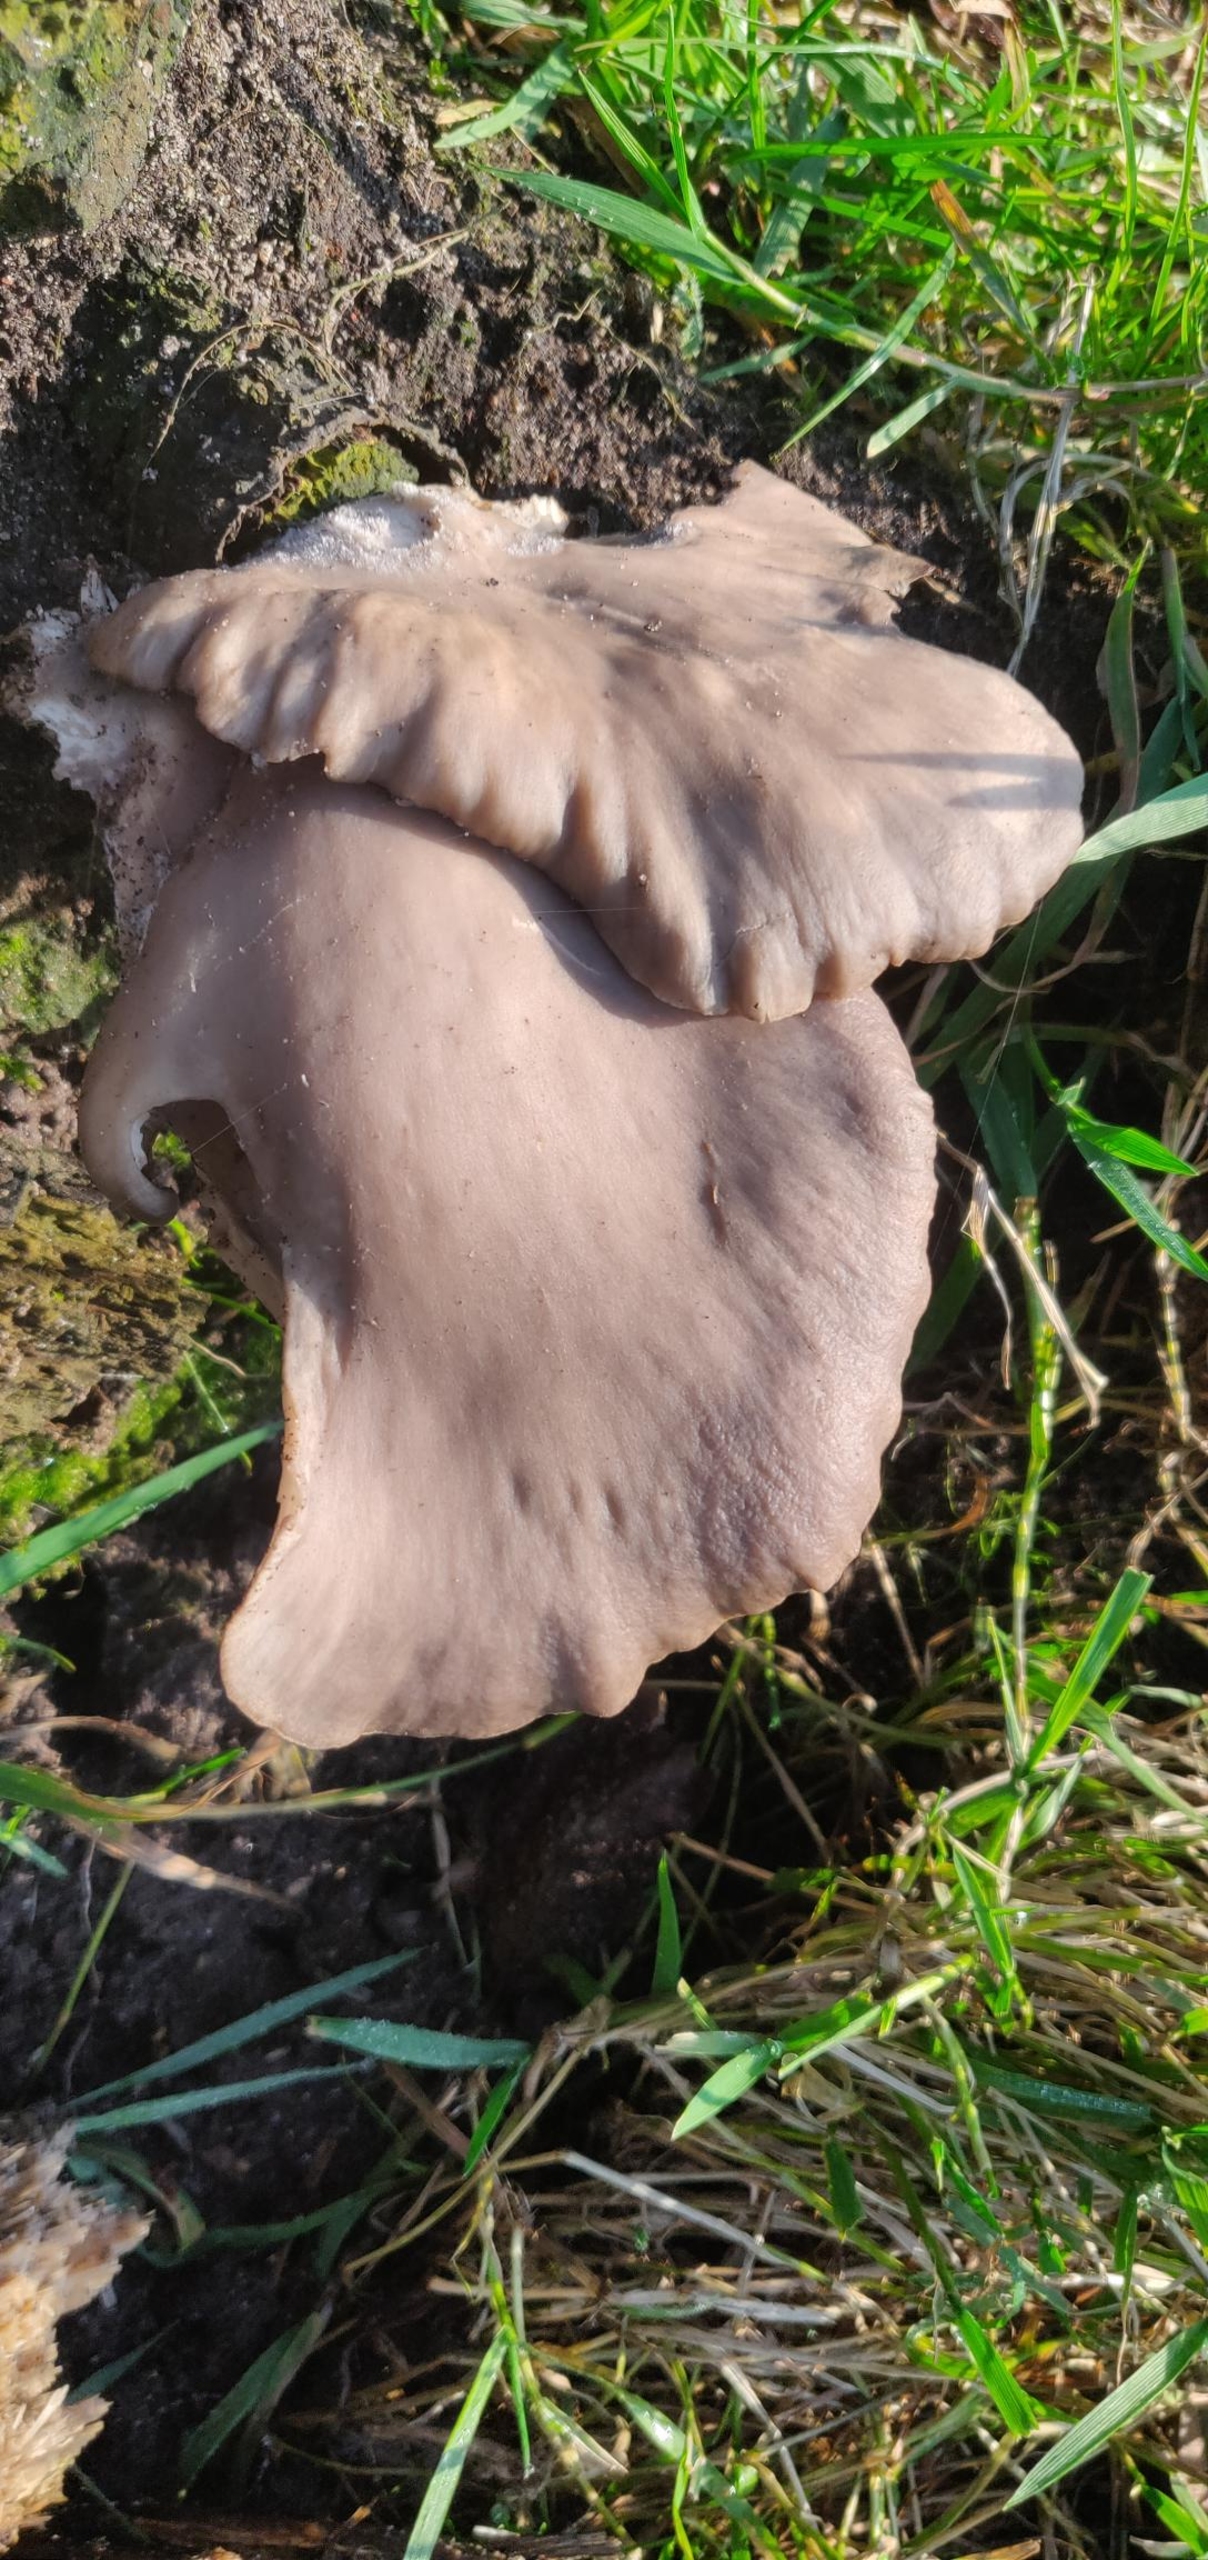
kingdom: Fungi
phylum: Basidiomycota
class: Agaricomycetes
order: Agaricales
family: Pleurotaceae
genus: Pleurotus
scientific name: Pleurotus ostreatus
